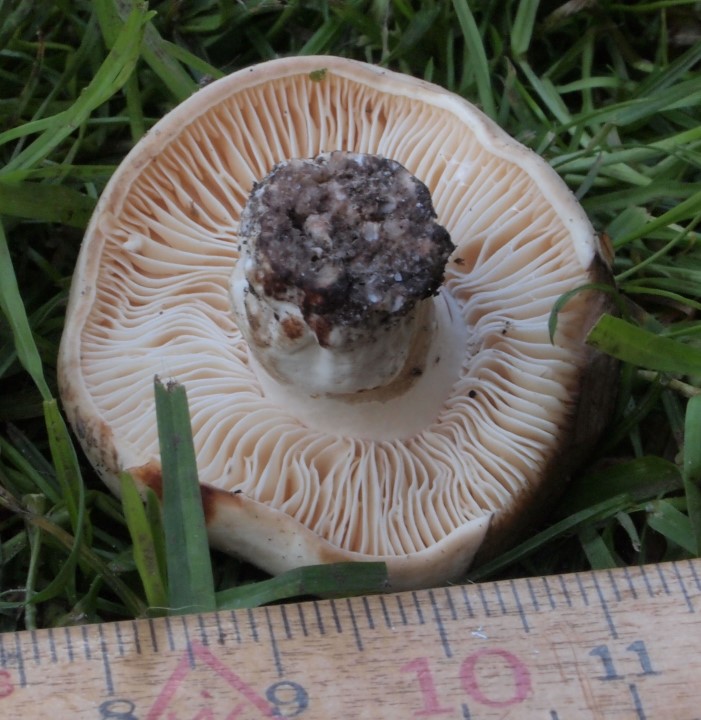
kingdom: Fungi
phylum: Basidiomycota
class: Agaricomycetes
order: Russulales
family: Russulaceae
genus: Russula
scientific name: Russula densifolia
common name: tætbladet skørhat
